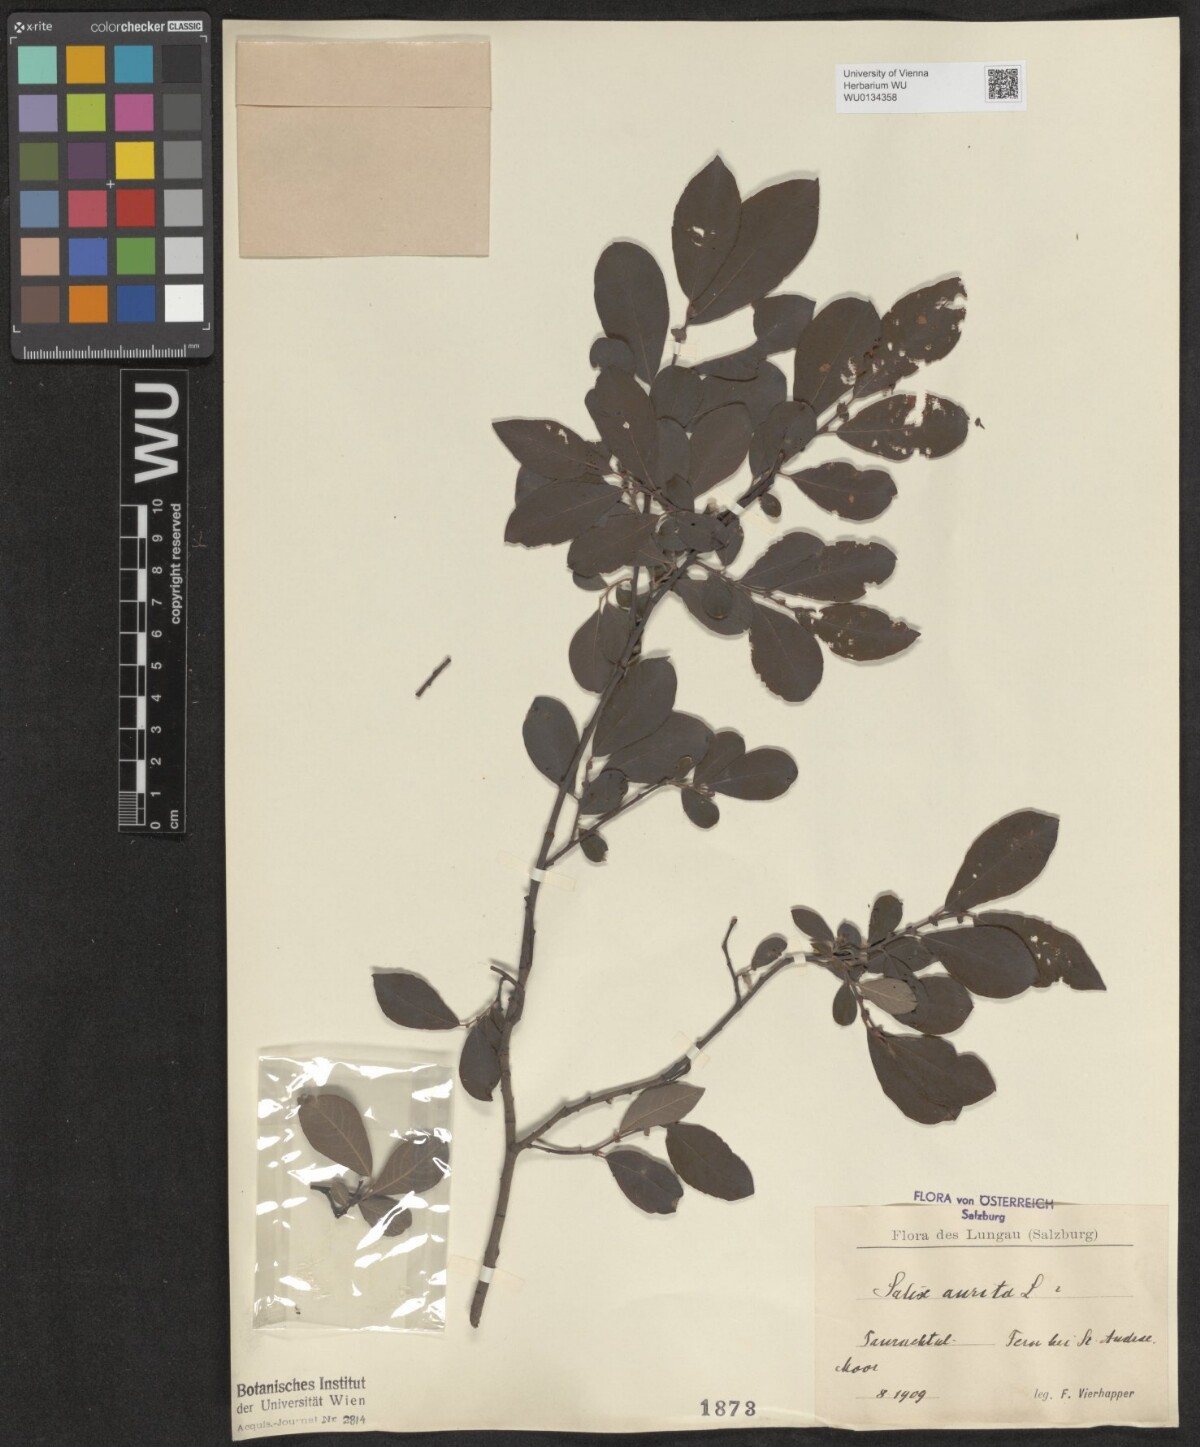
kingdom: Plantae
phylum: Tracheophyta
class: Magnoliopsida
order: Malpighiales
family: Salicaceae
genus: Salix
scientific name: Salix aurita
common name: Eared willow
